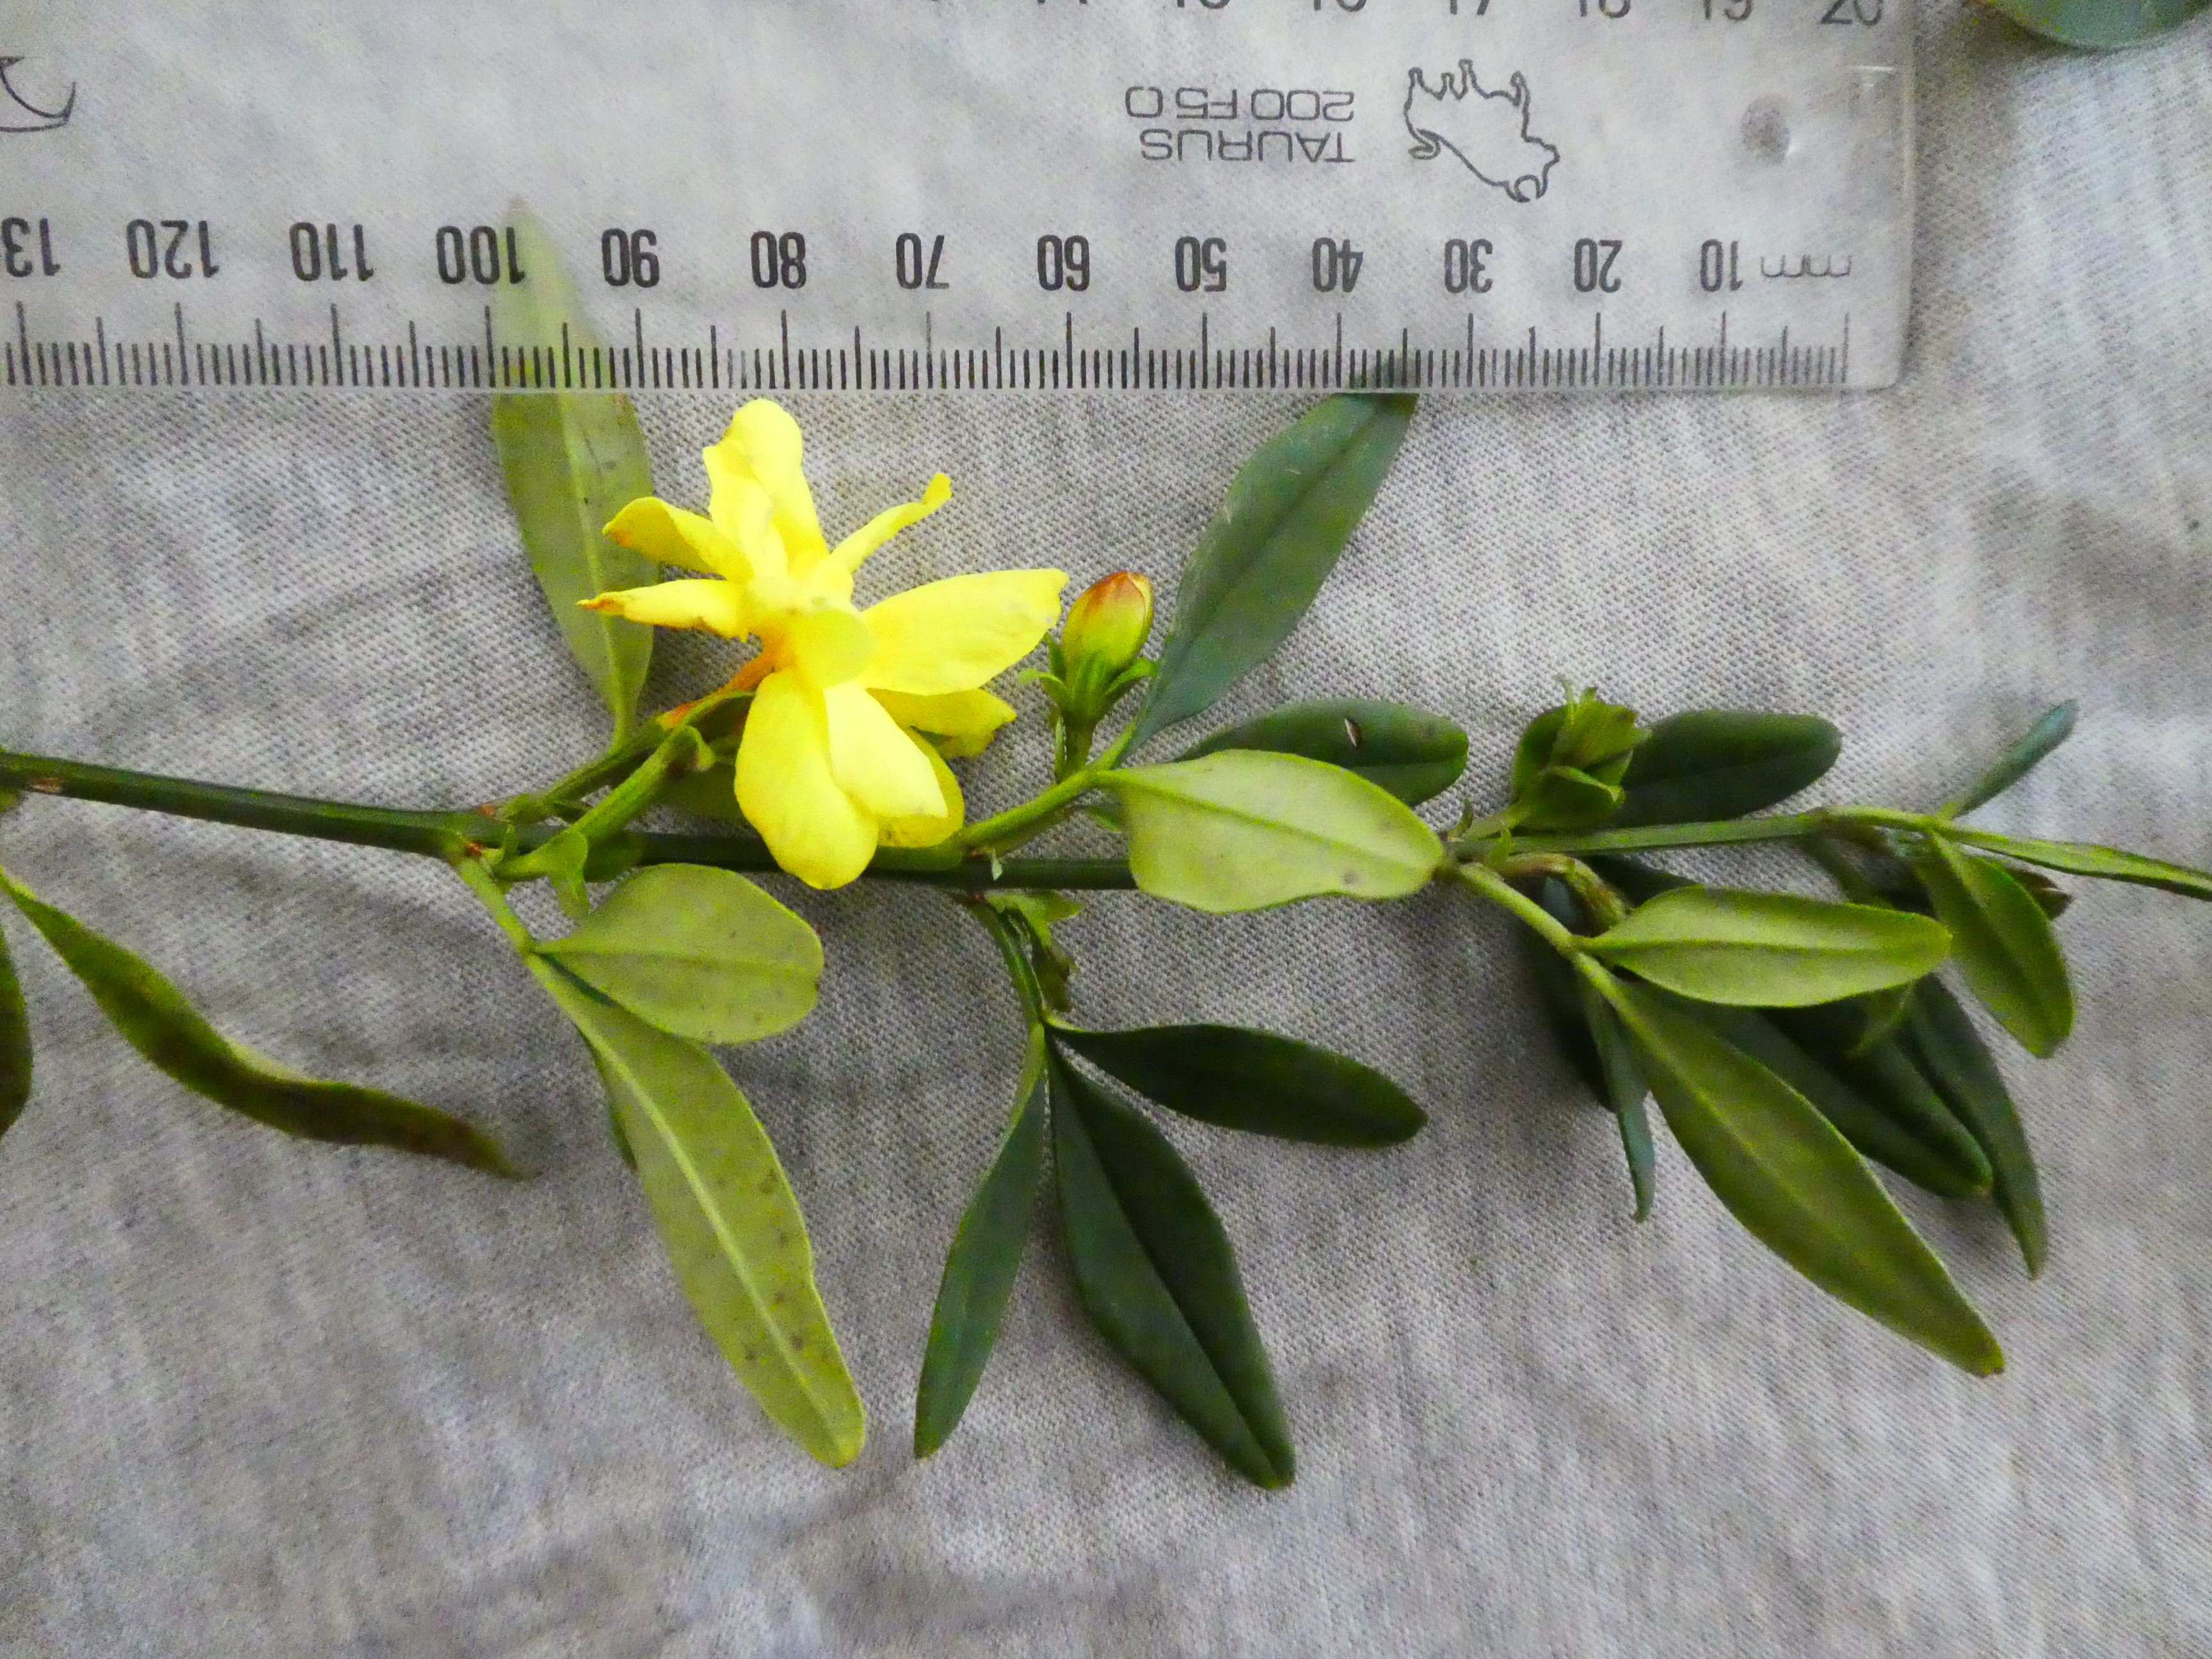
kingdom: Plantae
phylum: Tracheophyta
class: Magnoliopsida
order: Lamiales
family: Oleaceae
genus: Jasminum
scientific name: Jasminum mesnyi
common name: Japanese jasmine
